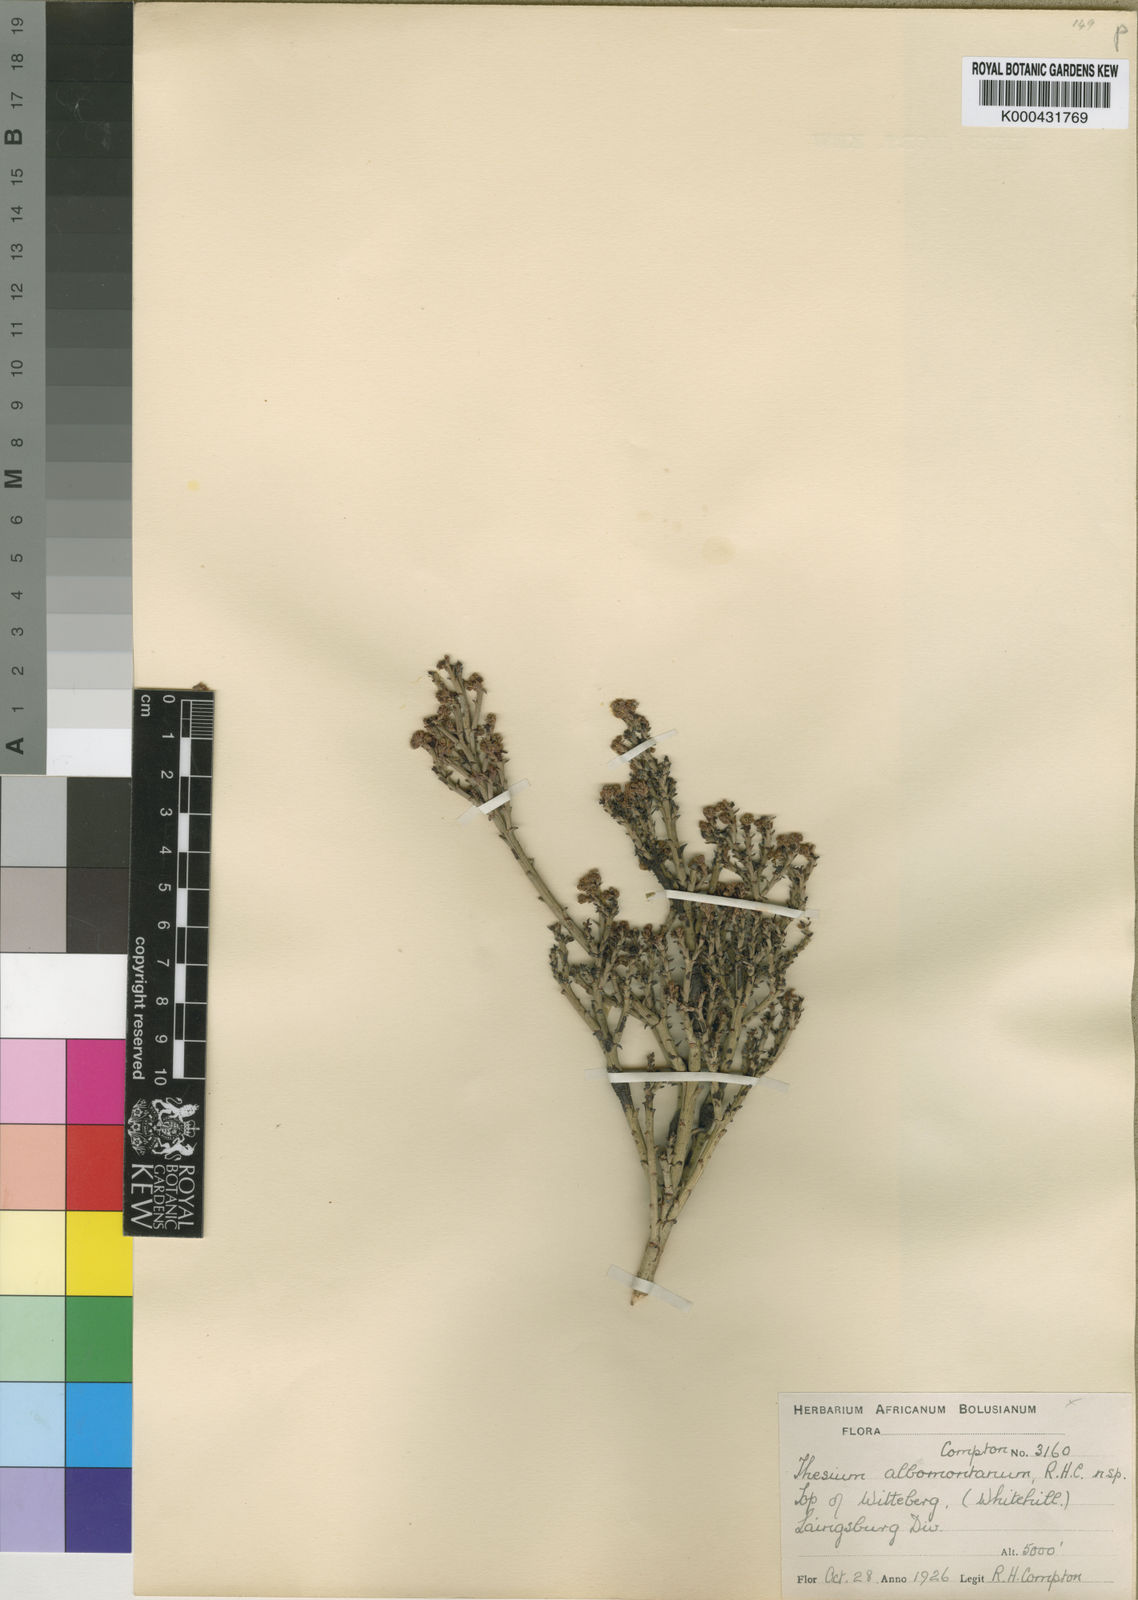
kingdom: Plantae
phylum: Tracheophyta
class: Magnoliopsida
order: Santalales
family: Thesiaceae
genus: Thesium
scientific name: Thesium albomontanum
